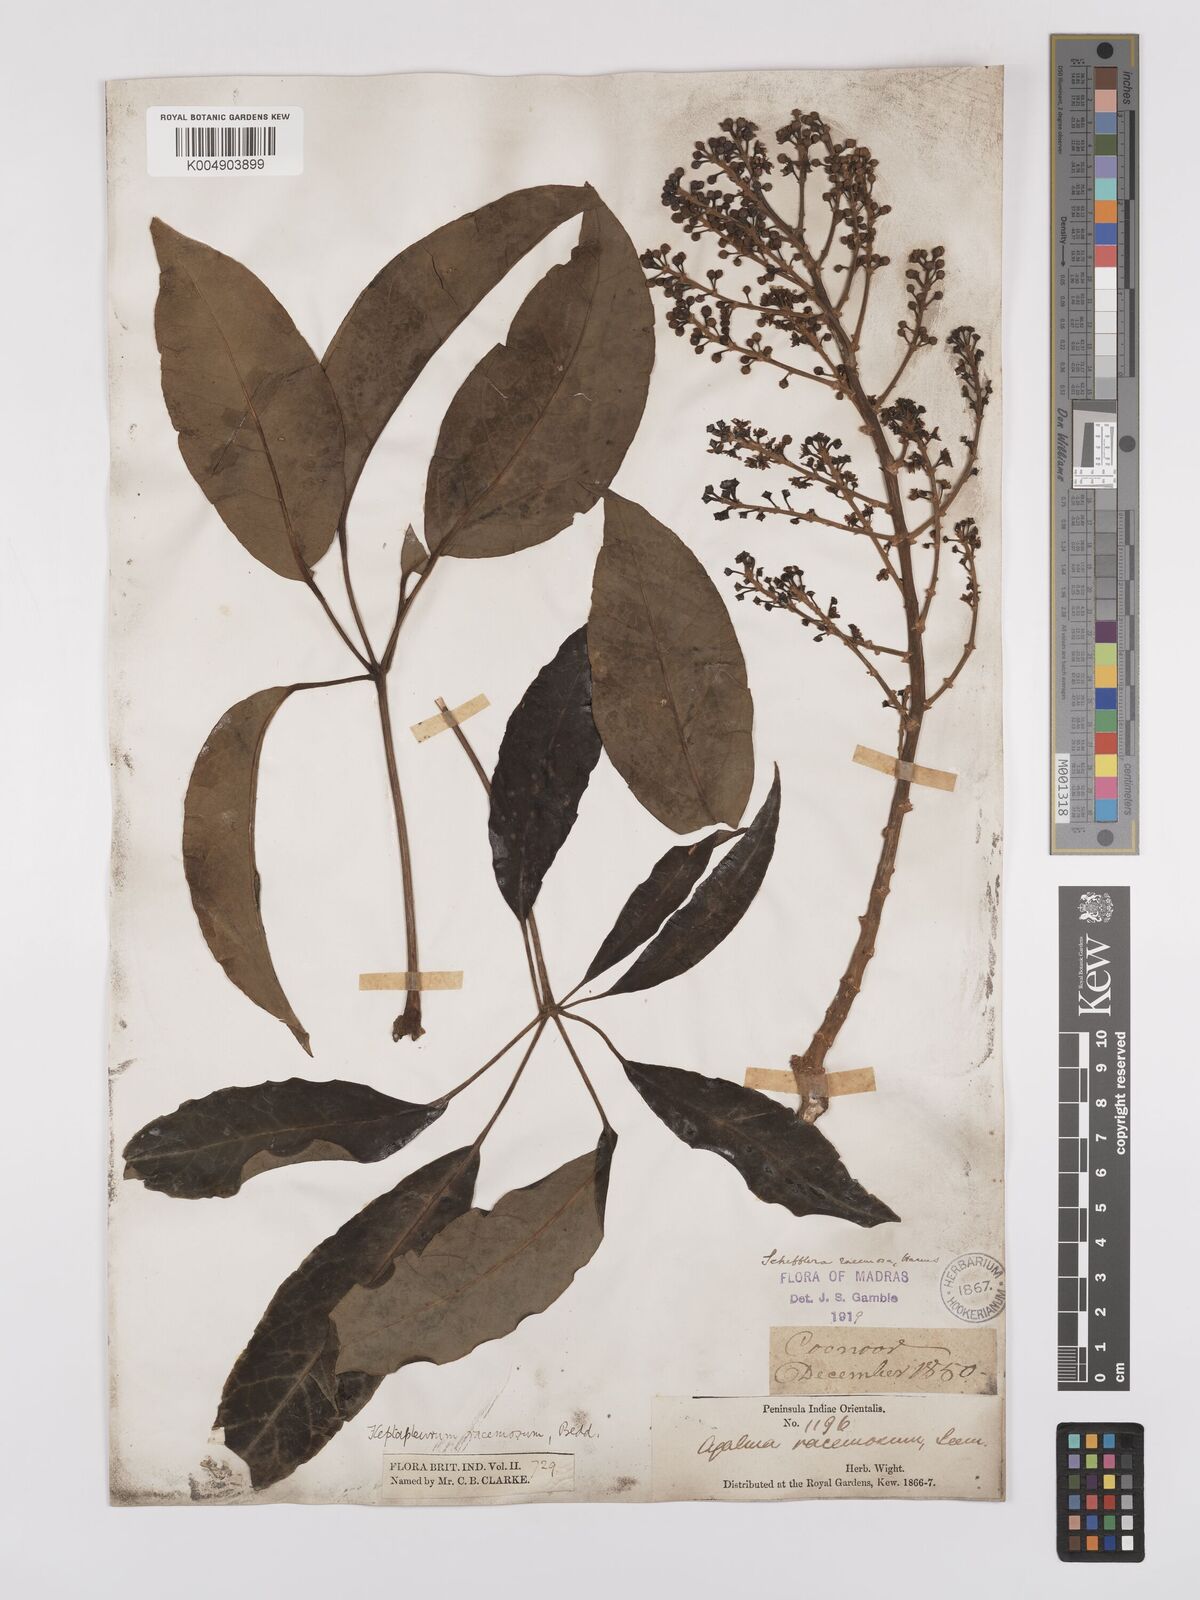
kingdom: Plantae
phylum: Tracheophyta
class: Magnoliopsida
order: Apiales
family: Araliaceae
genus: Heptapleurum
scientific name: Heptapleurum
